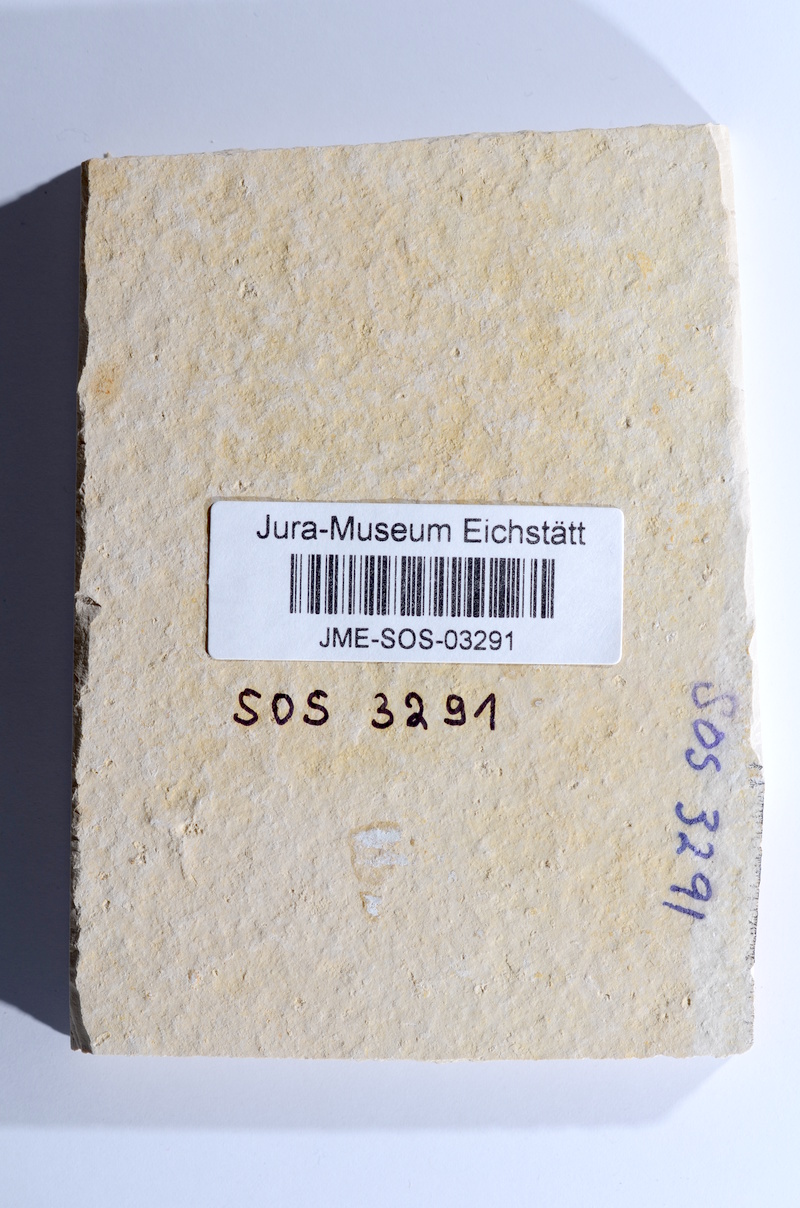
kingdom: Animalia
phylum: Chordata
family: Ascalaboidae
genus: Tharsis
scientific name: Tharsis dubius
